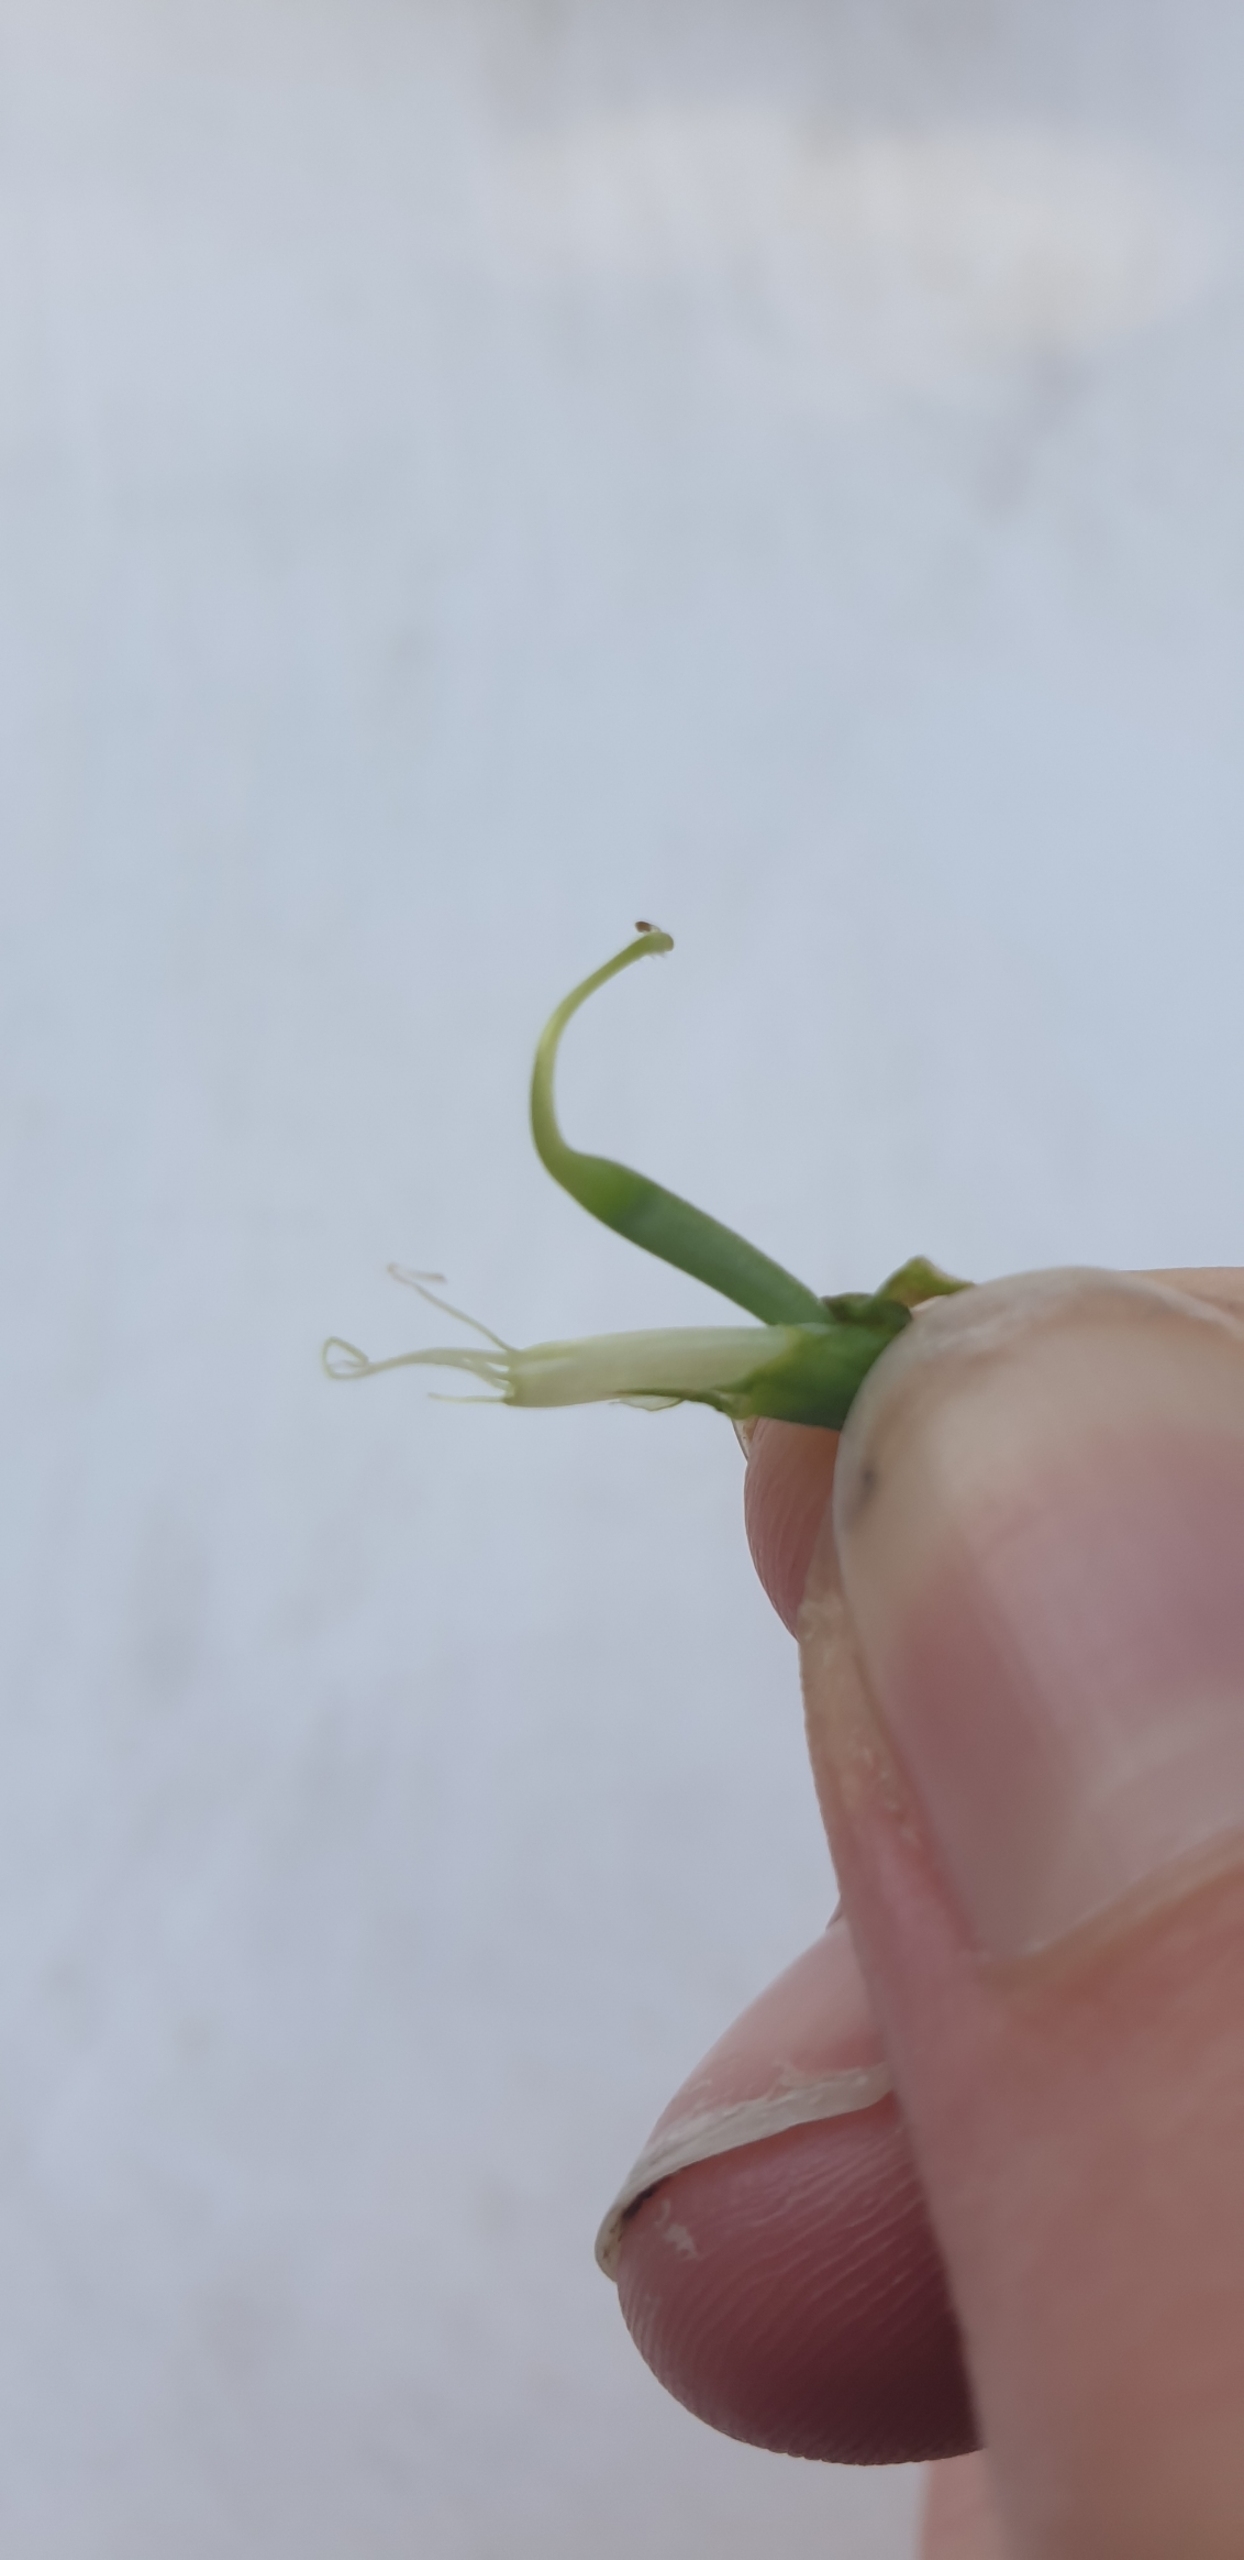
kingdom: Plantae
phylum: Tracheophyta
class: Magnoliopsida
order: Fabales
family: Fabaceae
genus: Lathyrus
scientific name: Lathyrus sylvestris
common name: Skov-fladbælg
